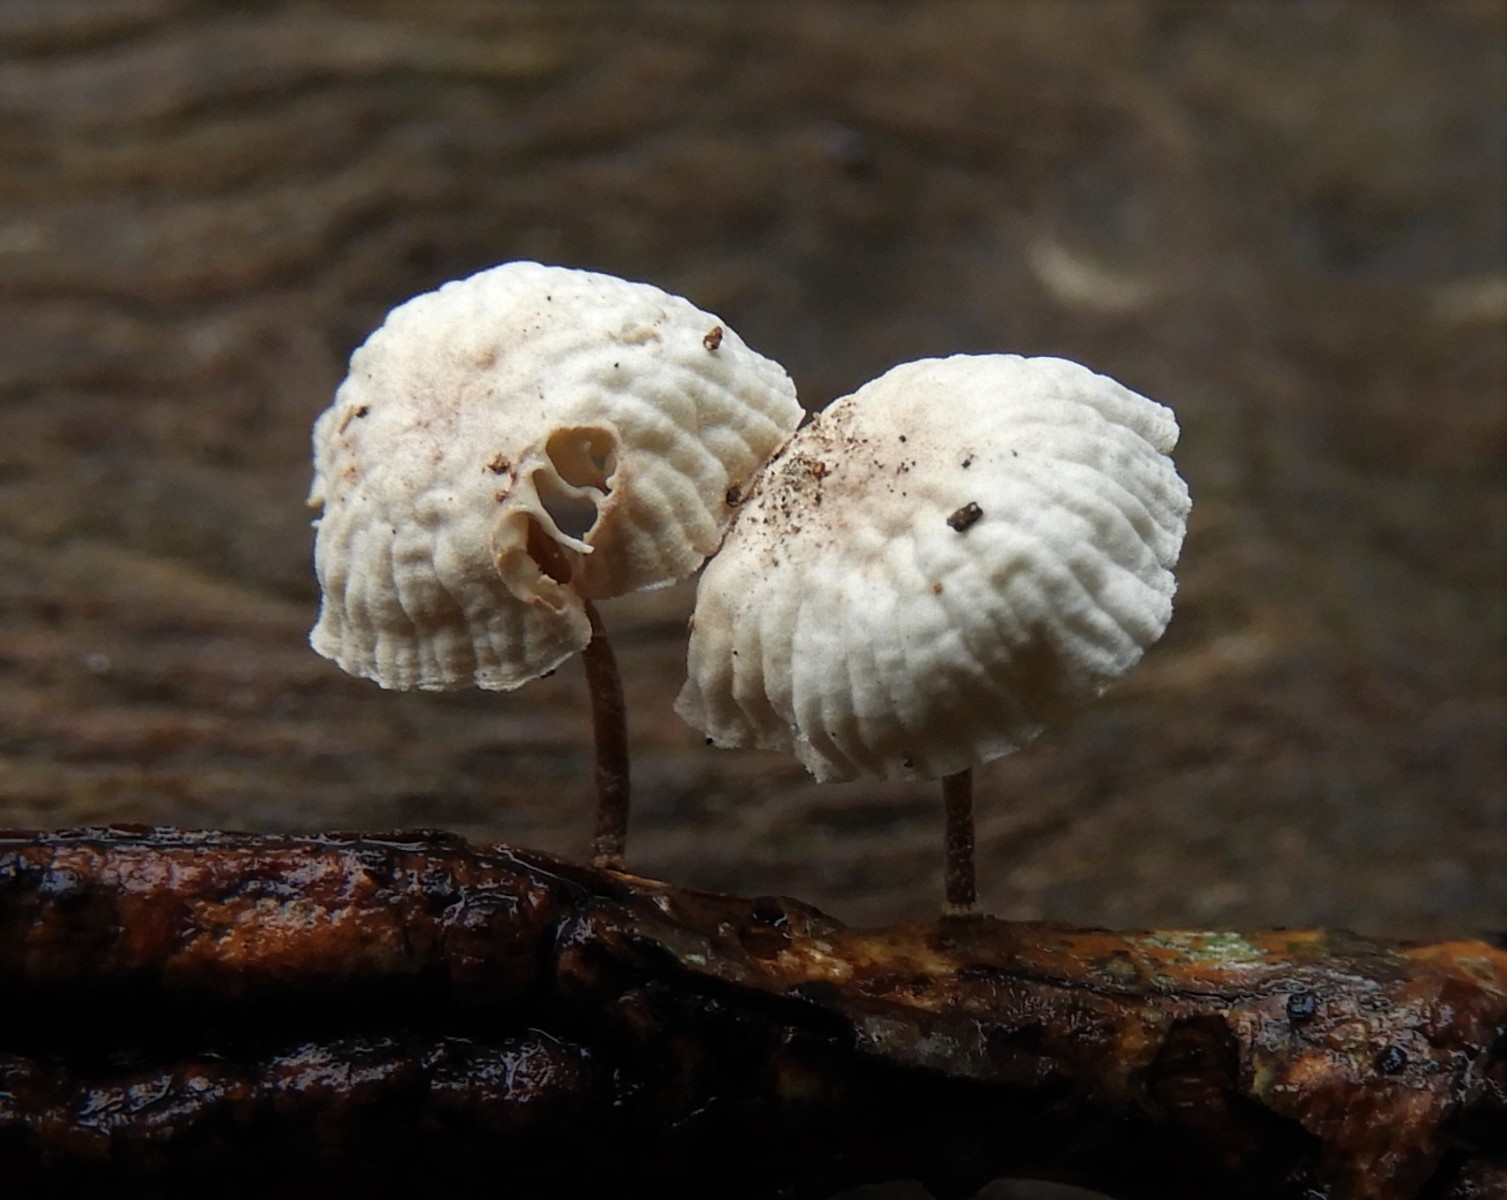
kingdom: Fungi
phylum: Basidiomycota
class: Agaricomycetes
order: Agaricales
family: Marasmiaceae
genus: Marasmius
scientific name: Marasmius rotula
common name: hjul-bruskhat
